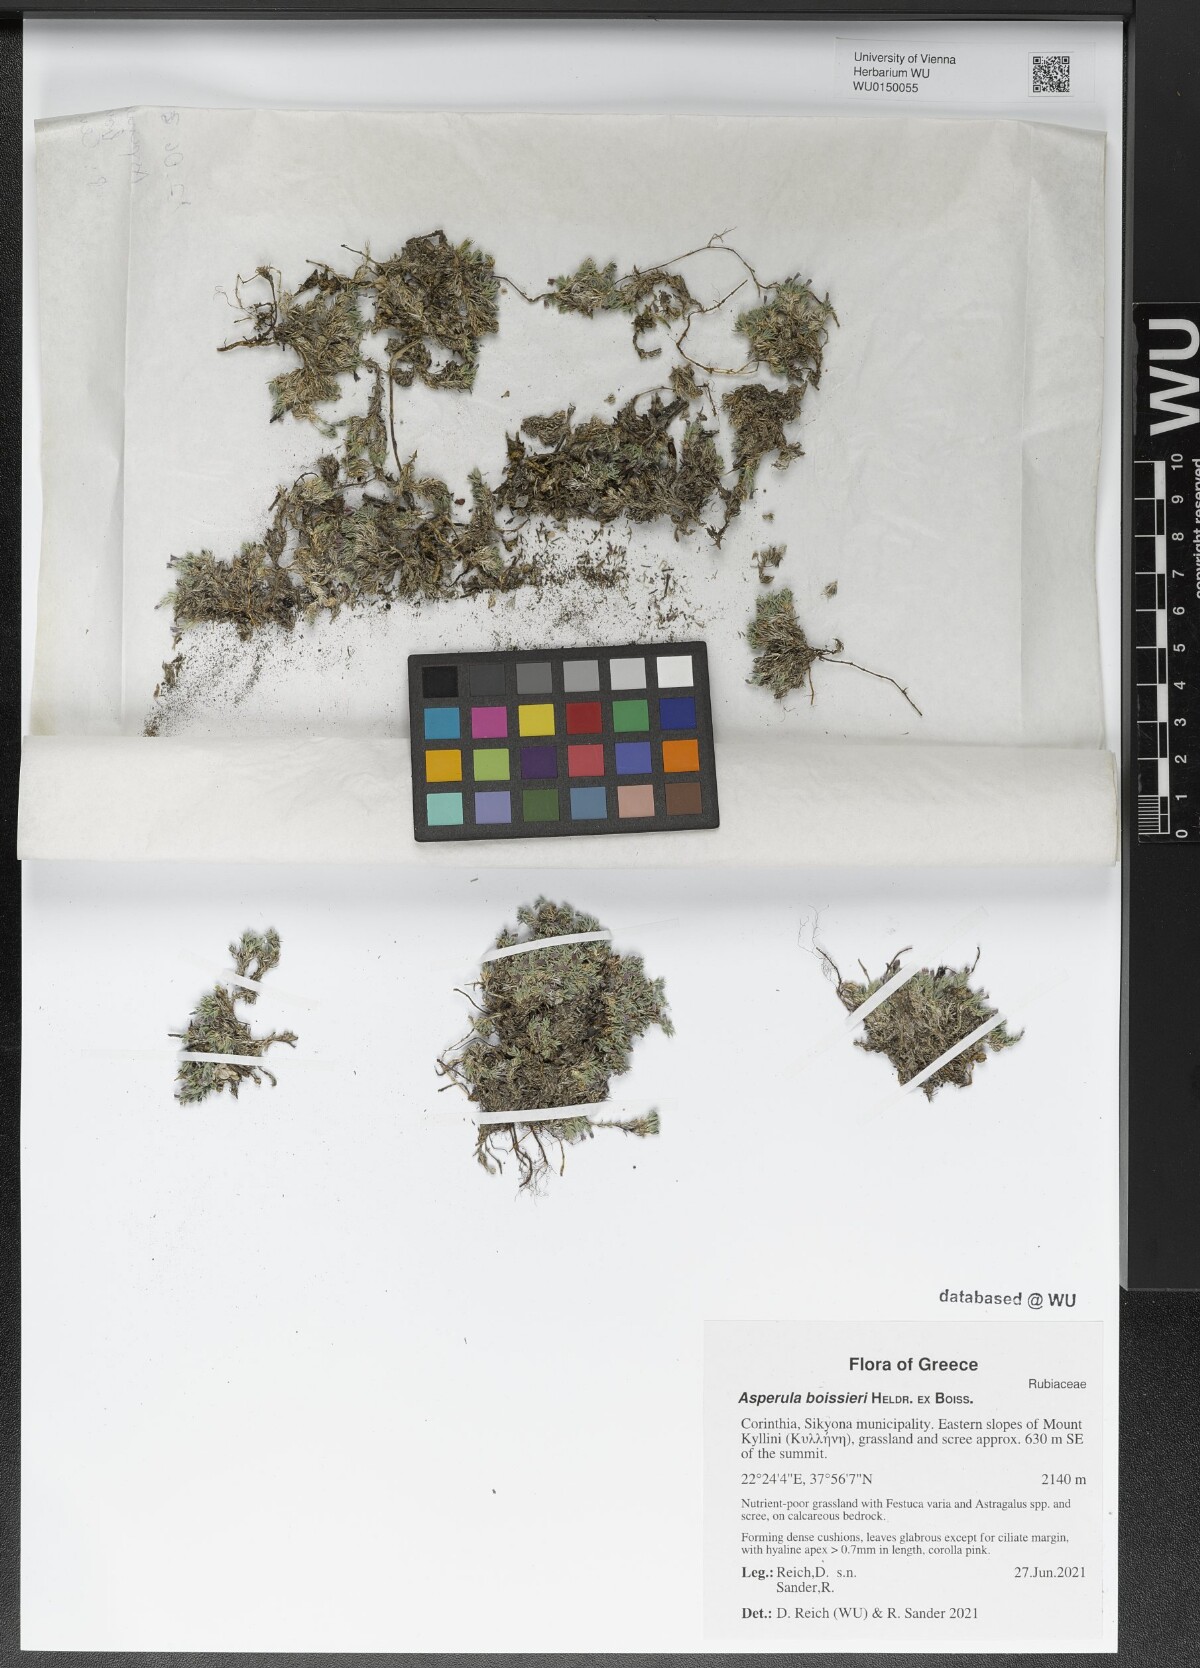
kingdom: Plantae
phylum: Tracheophyta
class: Magnoliopsida
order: Gentianales
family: Rubiaceae
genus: Cynanchica
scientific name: Cynanchica boissieri
